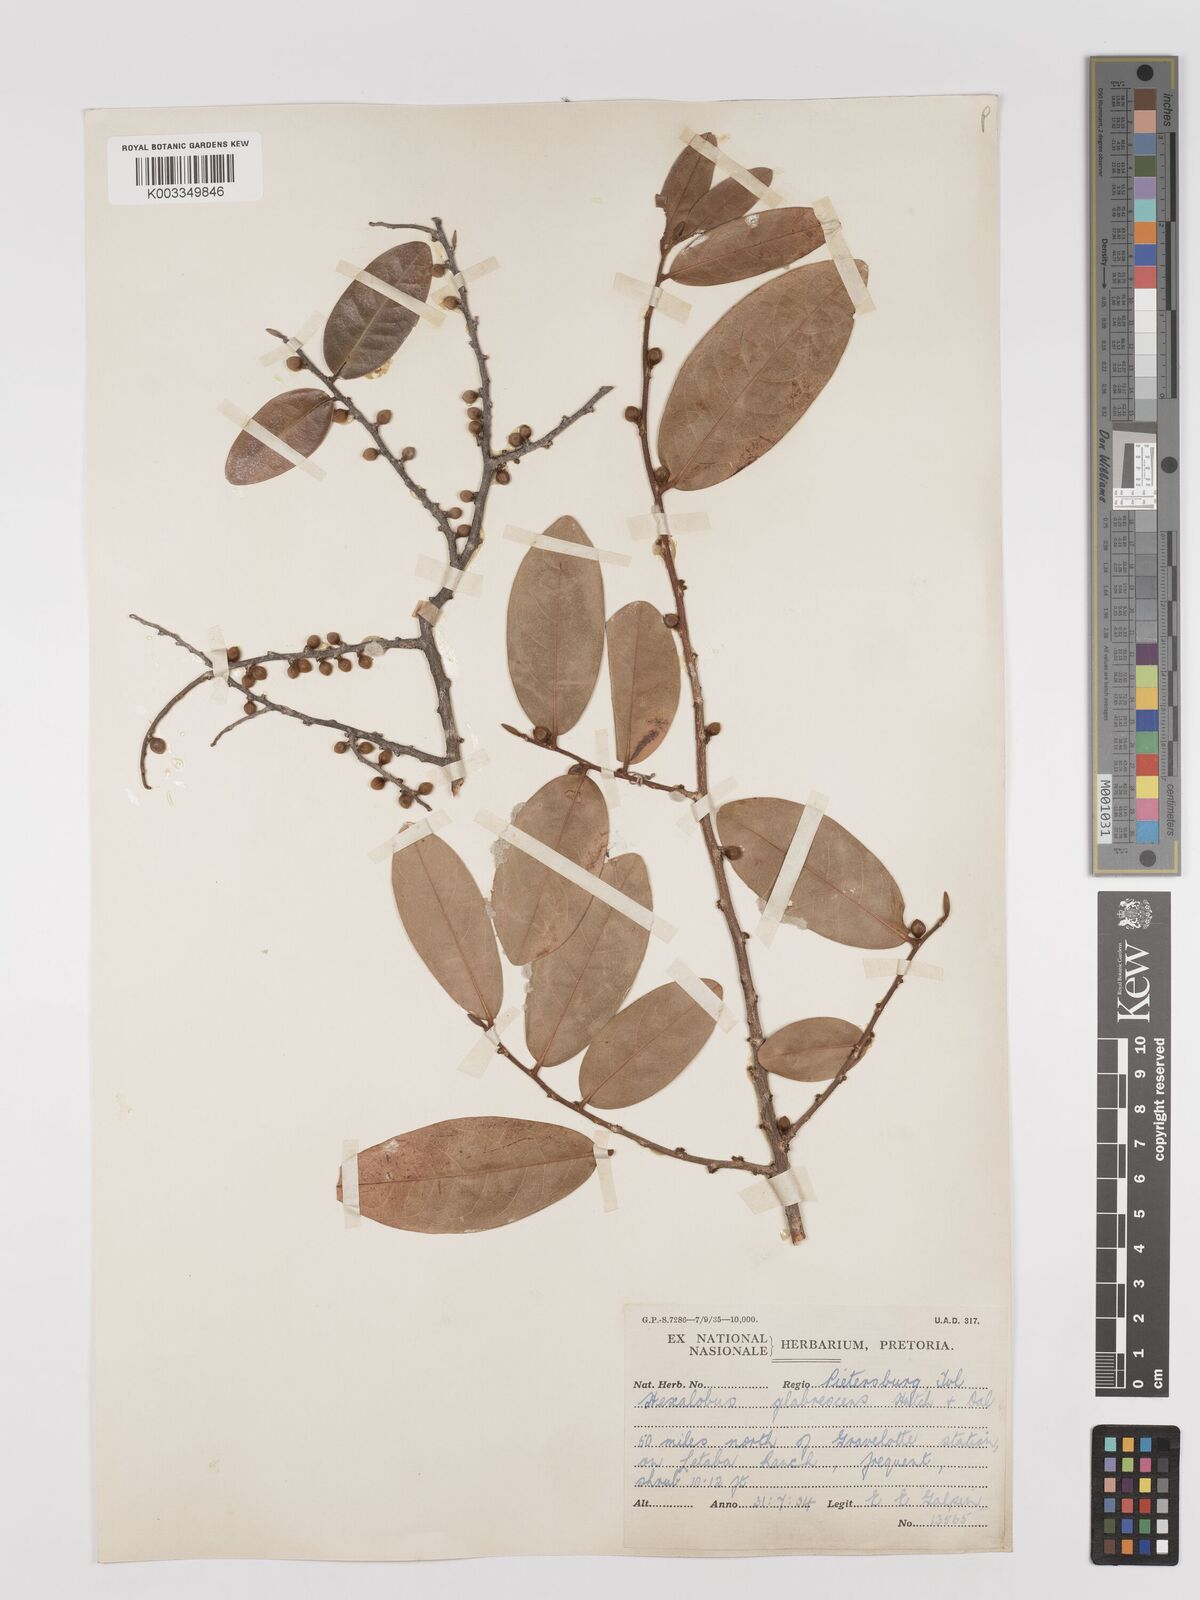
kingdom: Plantae
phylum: Tracheophyta
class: Magnoliopsida
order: Magnoliales
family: Annonaceae
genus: Hexalobus
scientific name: Hexalobus monopetalus
